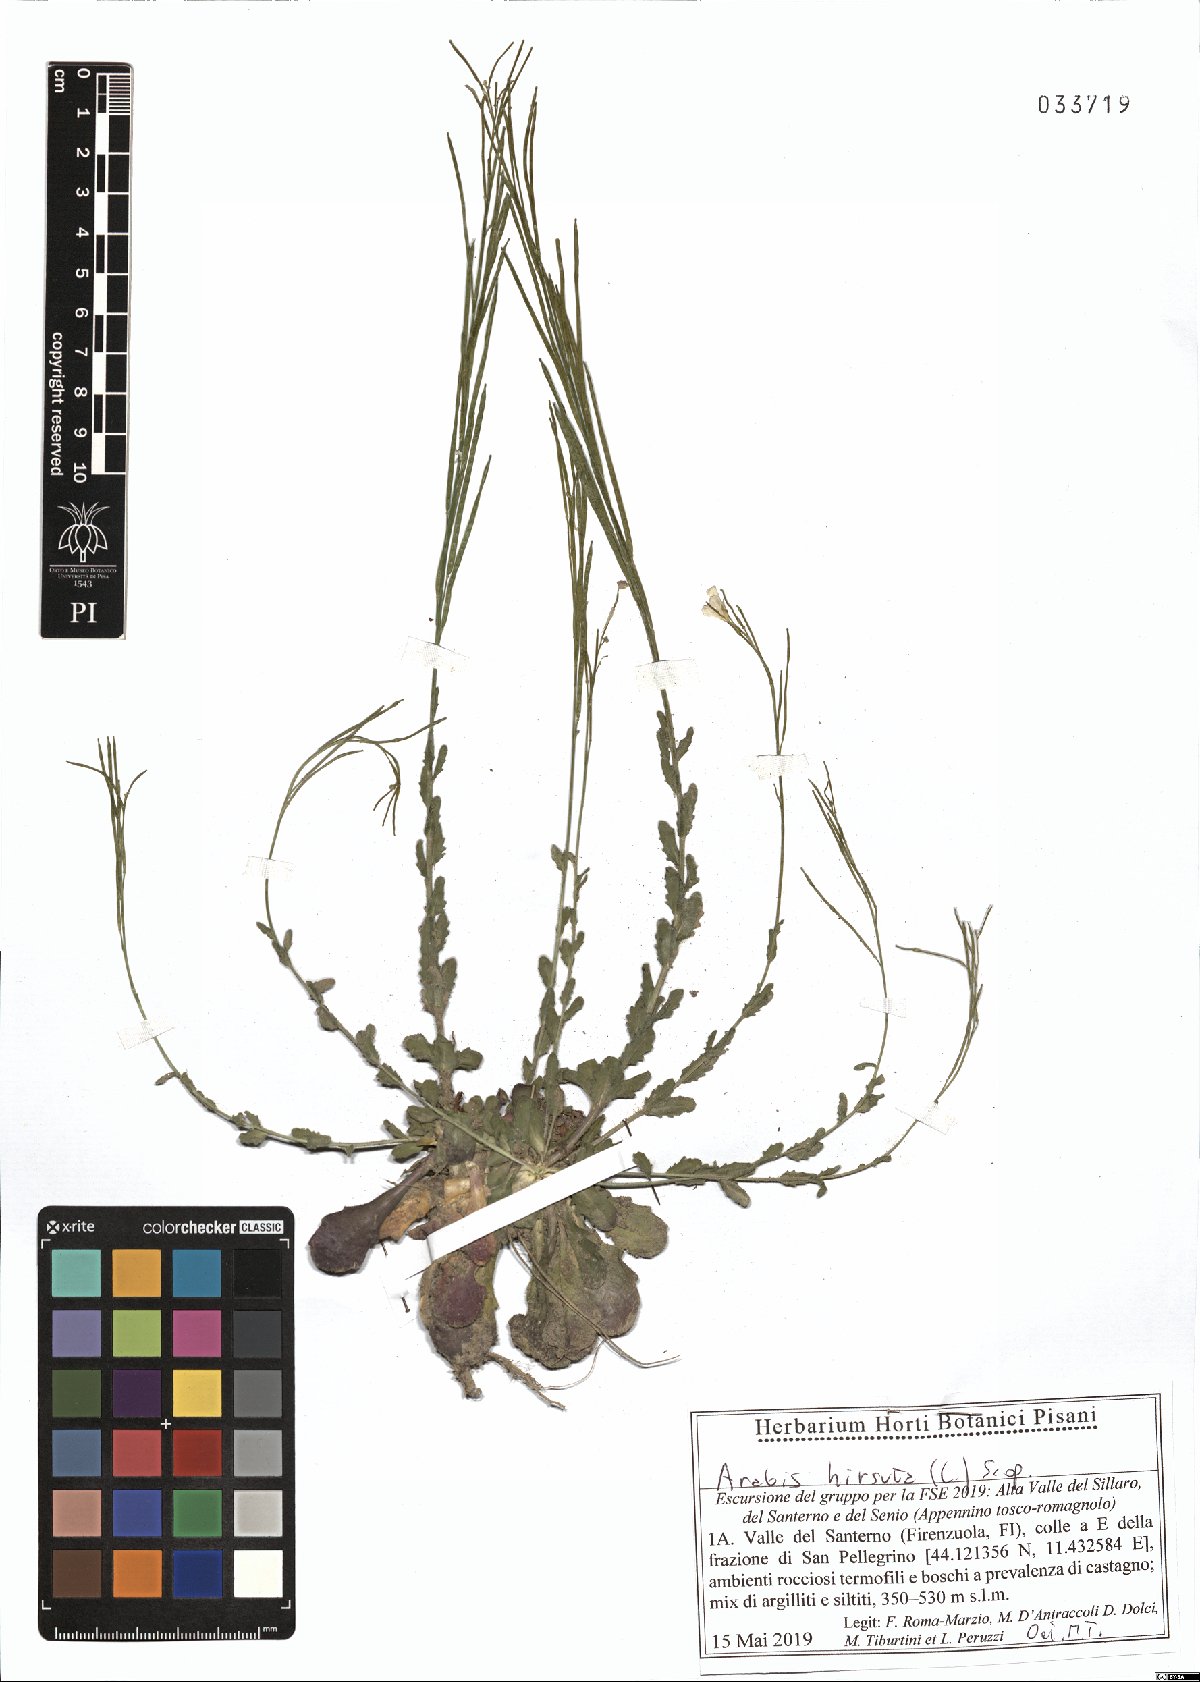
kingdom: Plantae
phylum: Tracheophyta
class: Magnoliopsida
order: Brassicales
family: Brassicaceae
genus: Arabis
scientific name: Arabis hirsuta
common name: Hairy rock-cress
